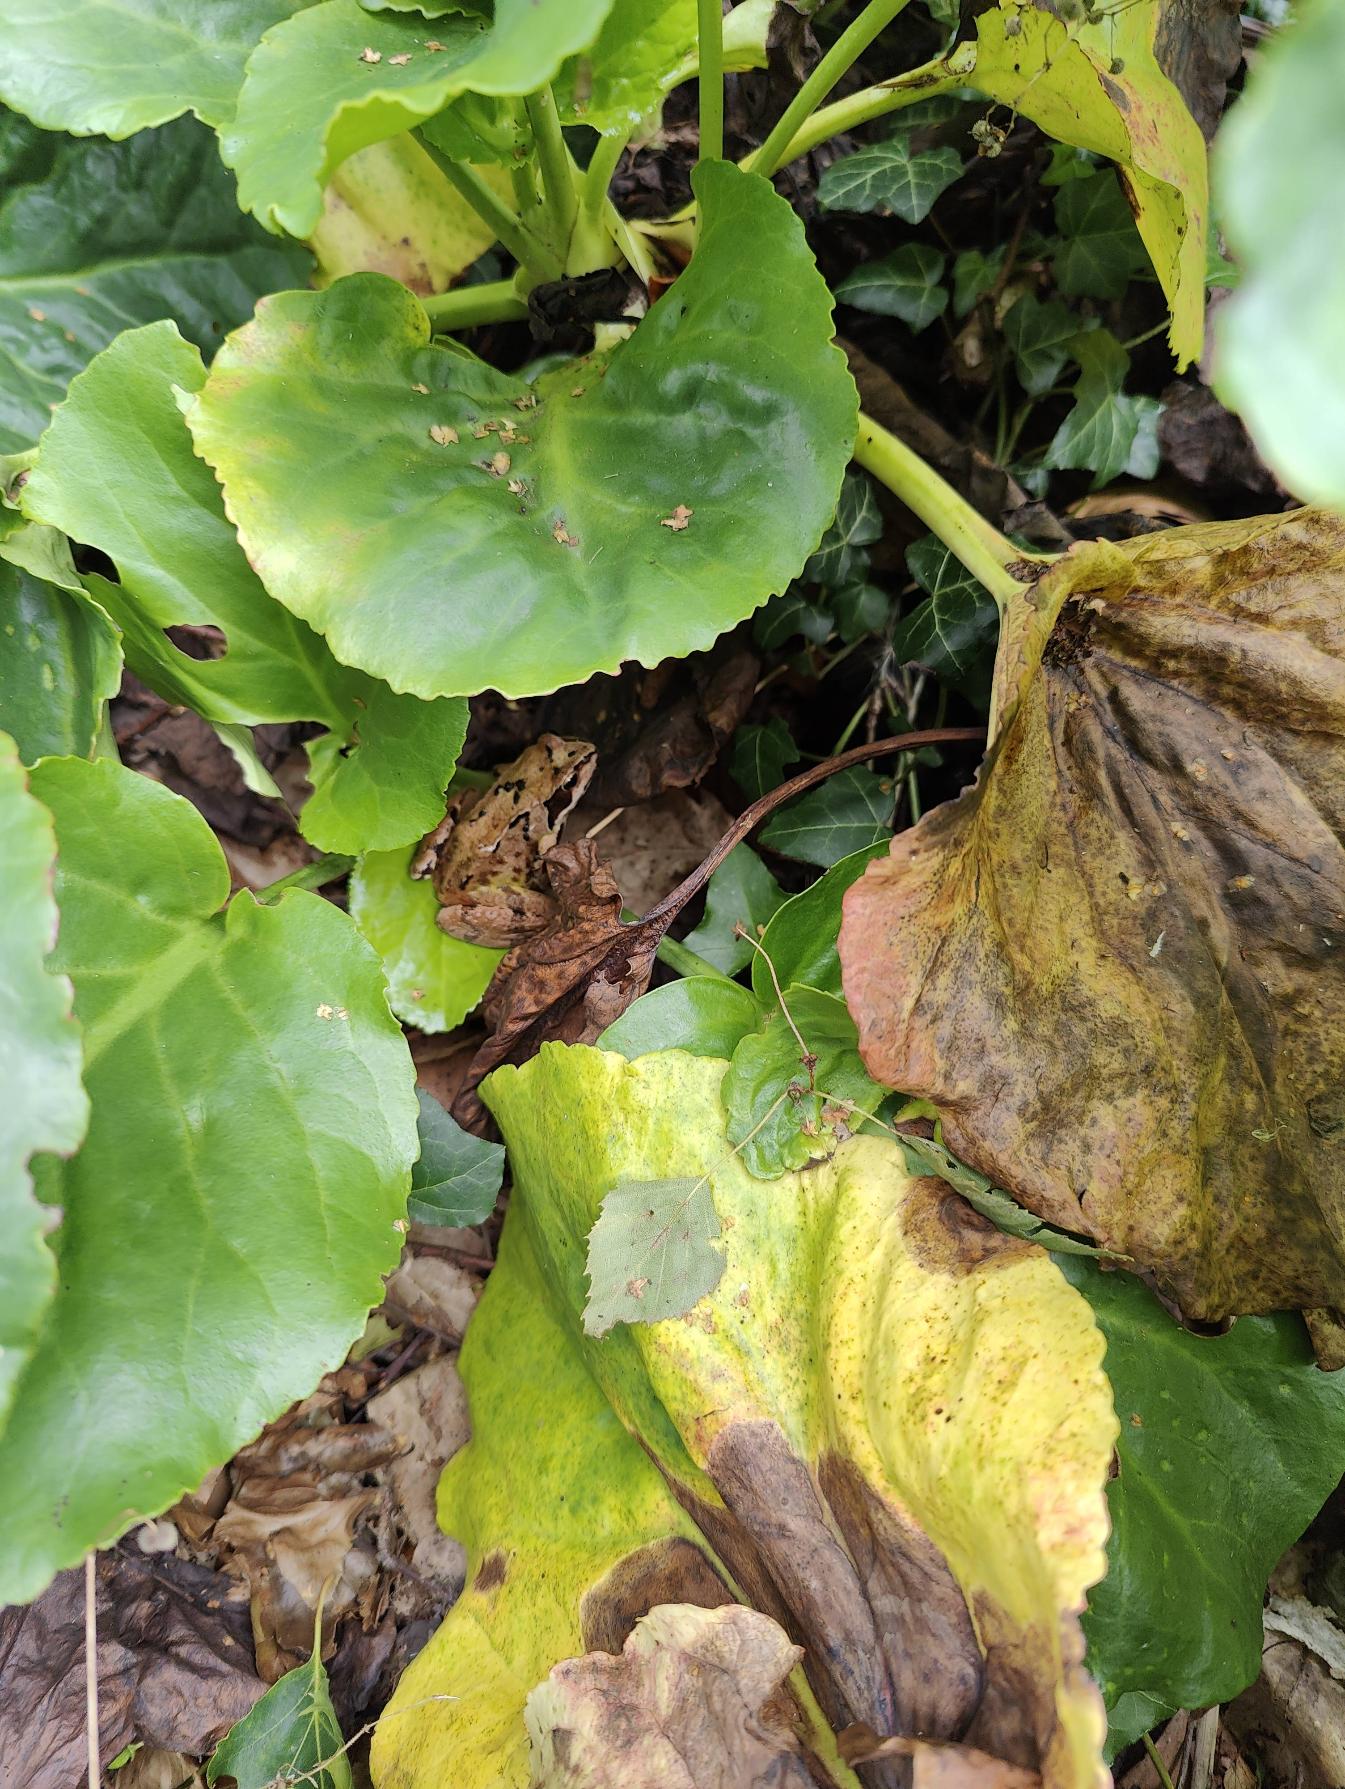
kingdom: Plantae
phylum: Tracheophyta
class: Magnoliopsida
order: Saxifragales
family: Saxifragaceae
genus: Bergenia
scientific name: Bergenia crassifolia
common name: Almindelig kæmpestenbræk
